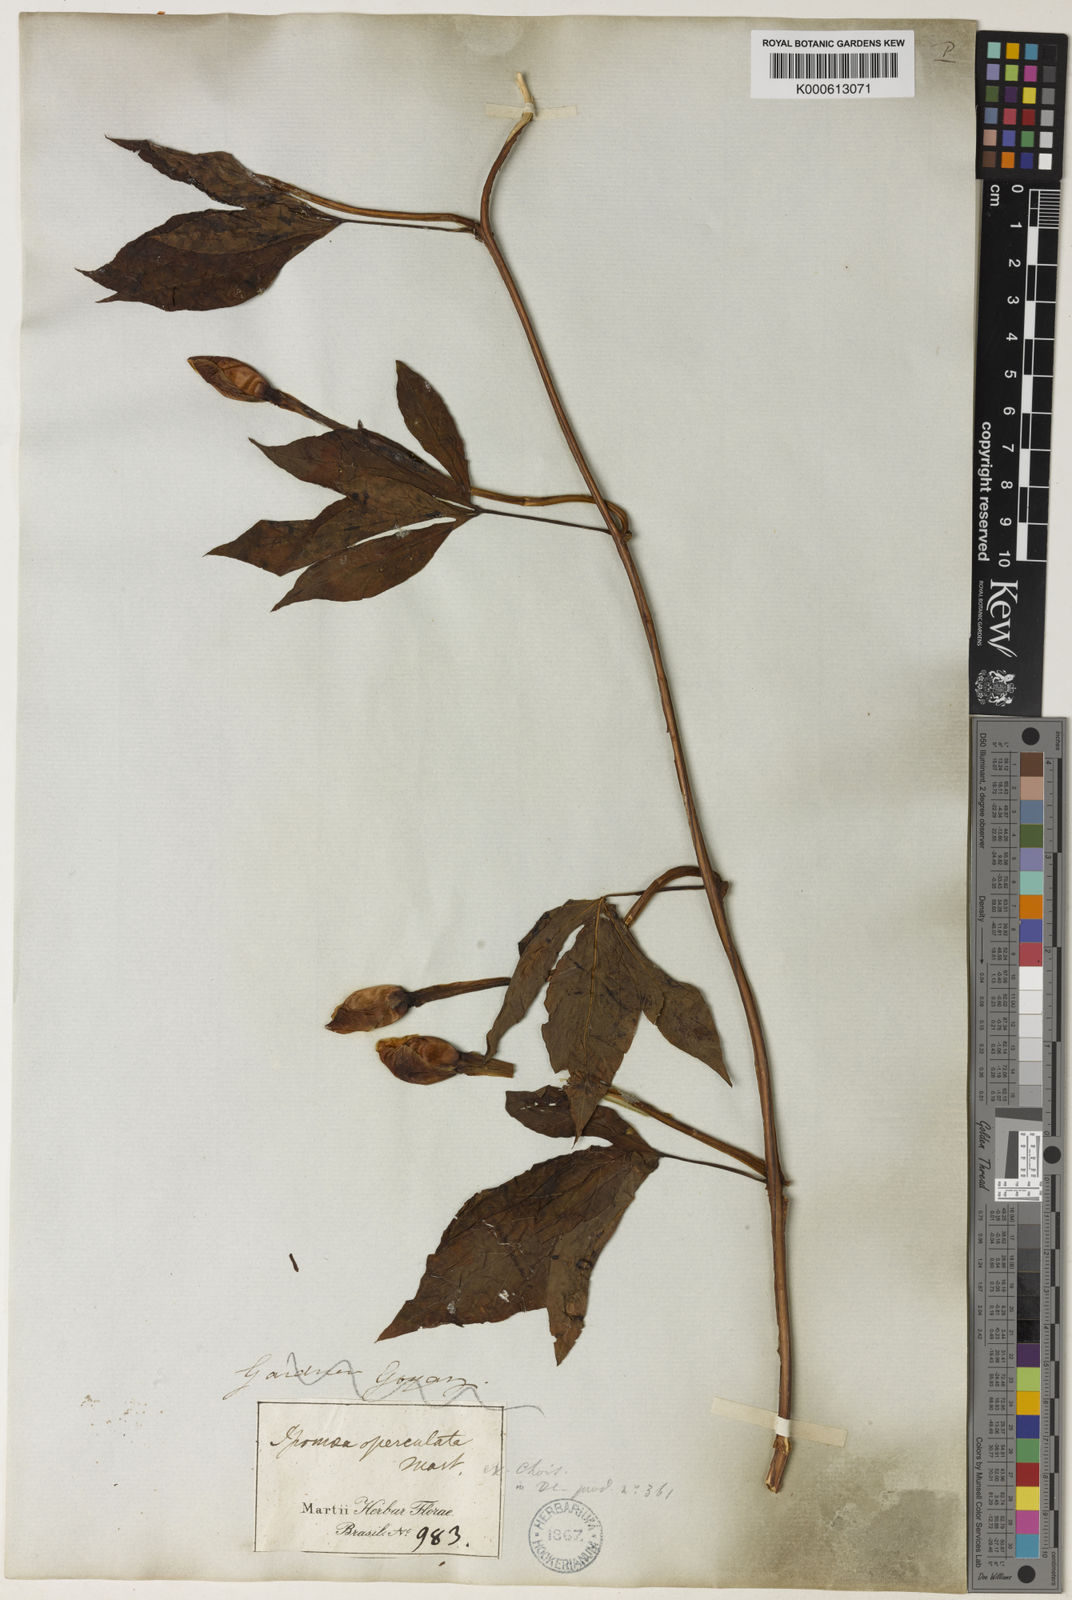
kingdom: Plantae
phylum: Tracheophyta
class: Magnoliopsida
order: Solanales
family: Convolvulaceae
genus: Operculina
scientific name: Operculina macrocarpa
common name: Brazilian jalap
